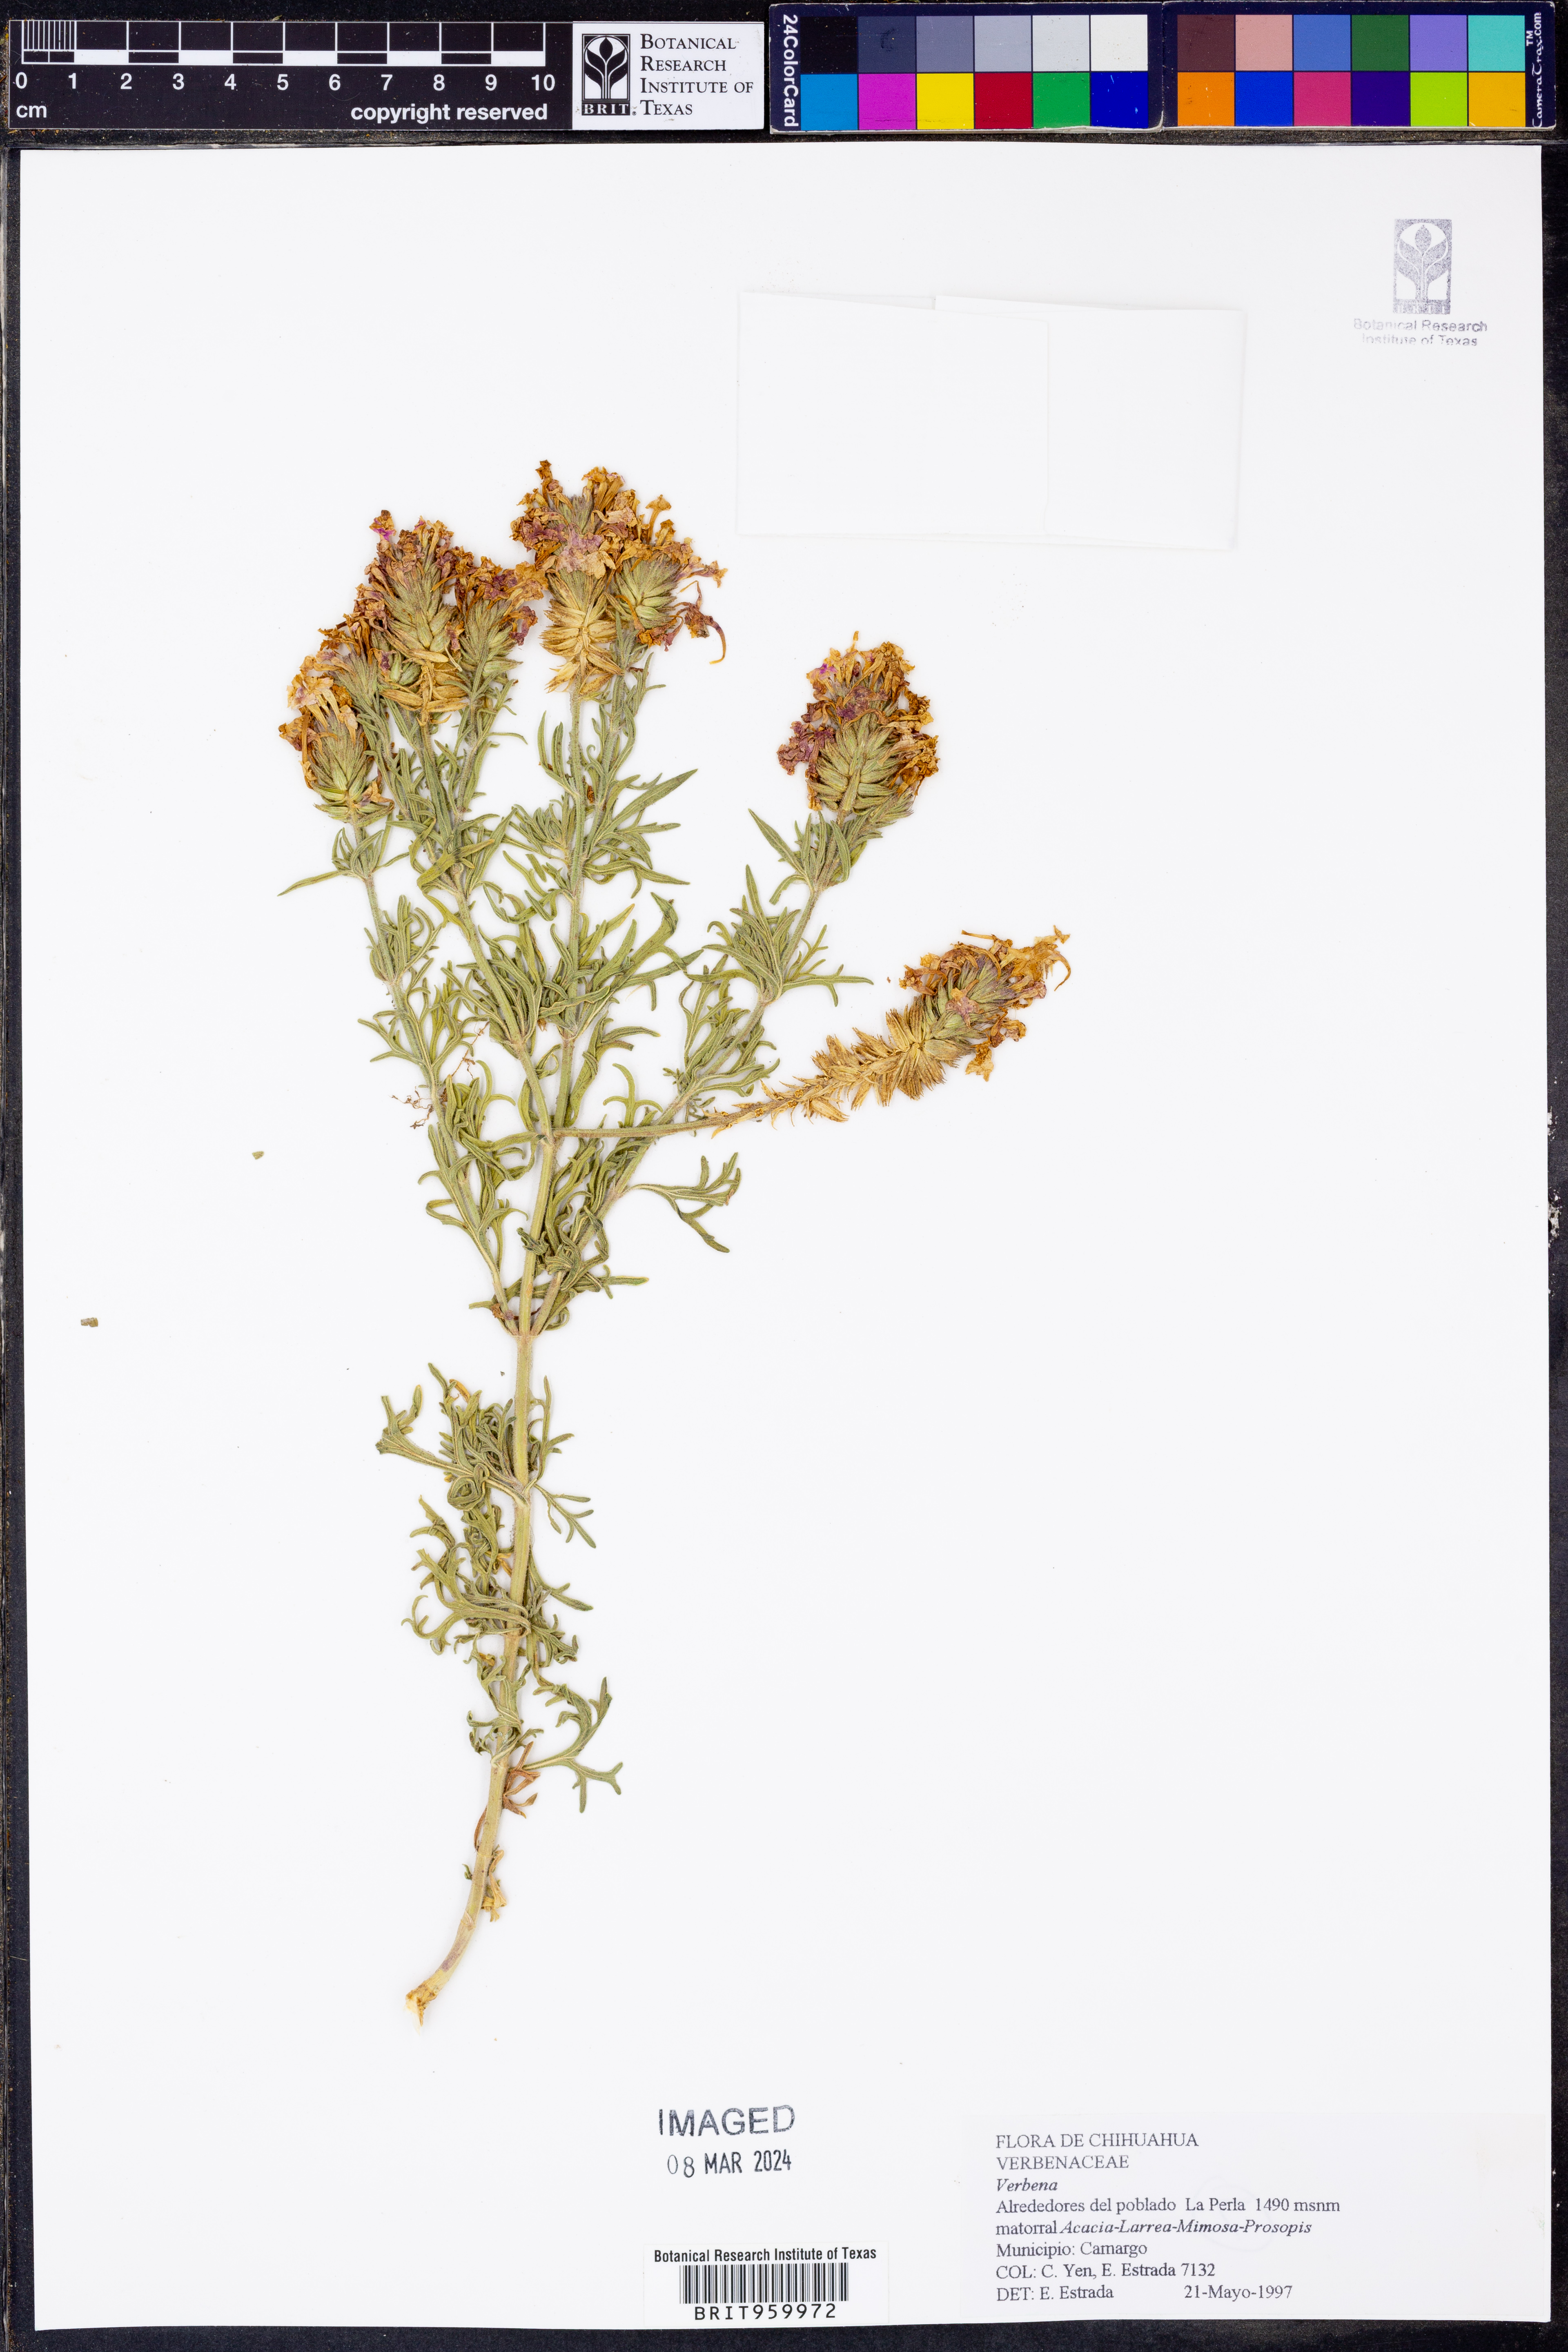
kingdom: Plantae
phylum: Tracheophyta
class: Magnoliopsida
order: Lamiales
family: Verbenaceae
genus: Verbena
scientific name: Verbena bipinnatifida
